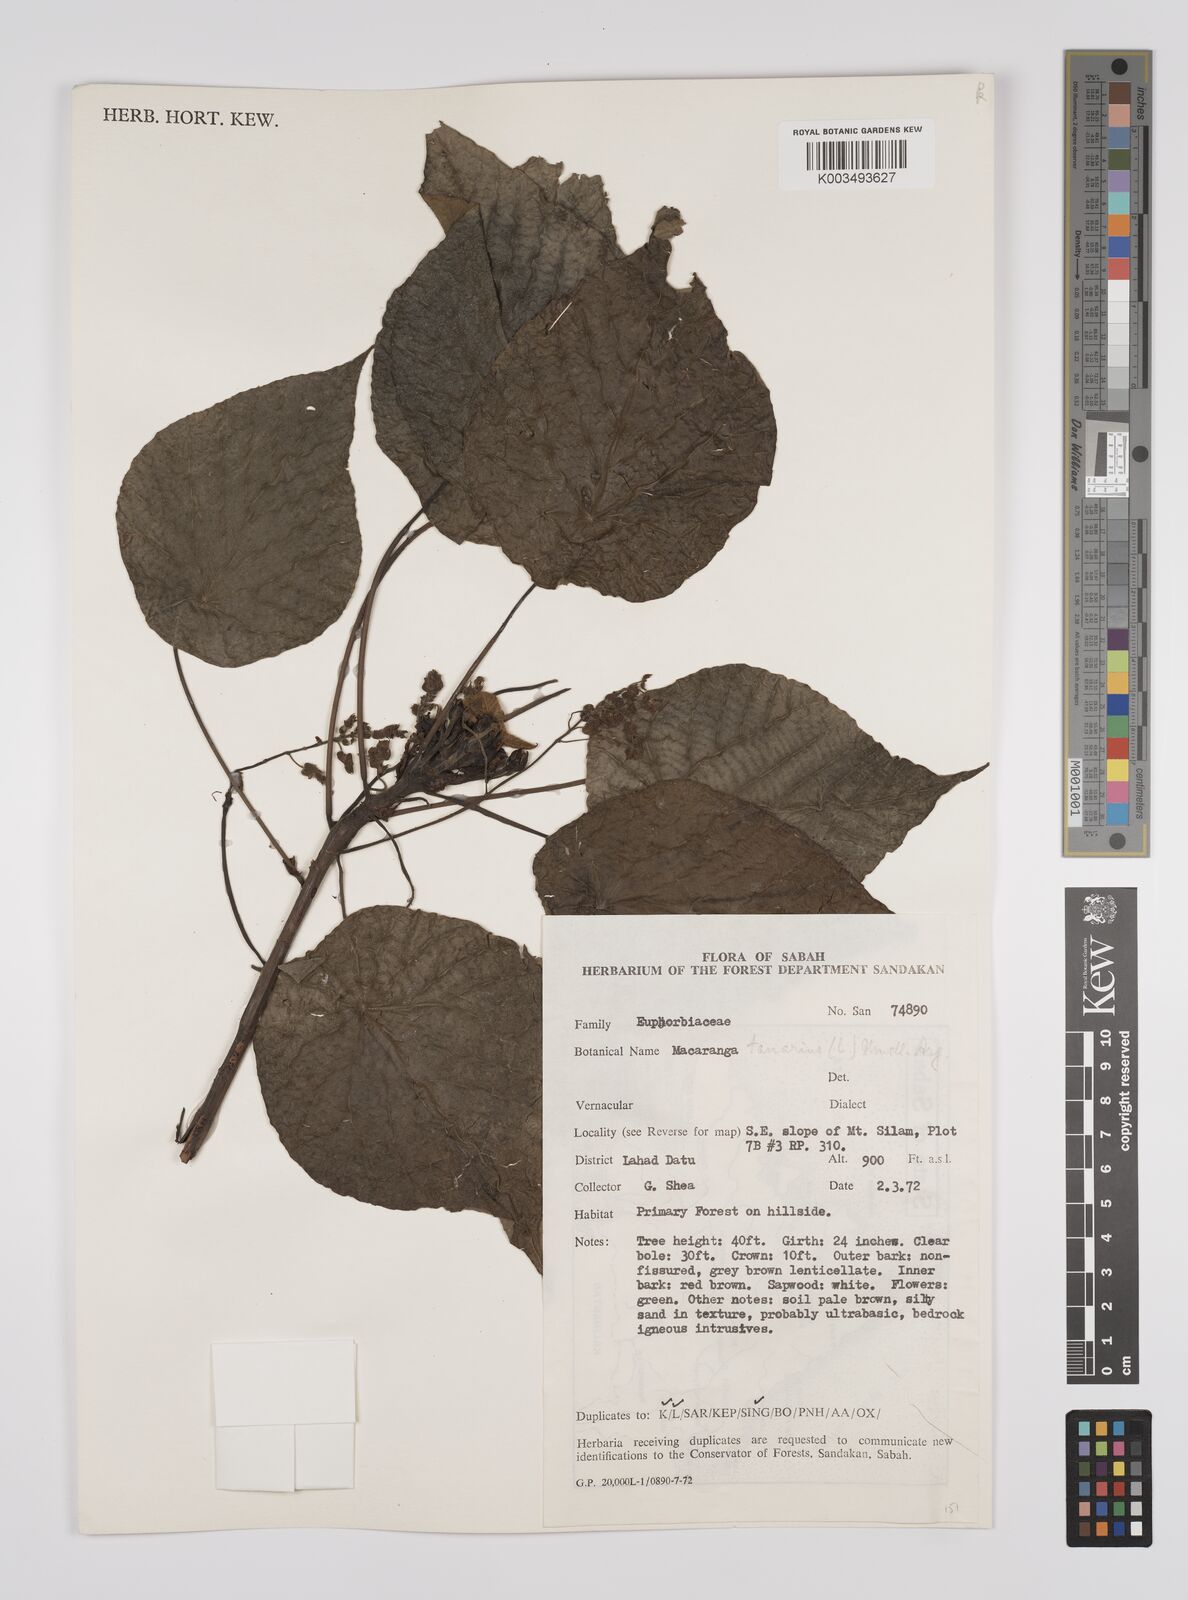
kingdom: Plantae
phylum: Tracheophyta
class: Magnoliopsida
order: Malpighiales
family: Euphorbiaceae
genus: Macaranga
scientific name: Macaranga tanarius
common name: Parasol leaf tree
